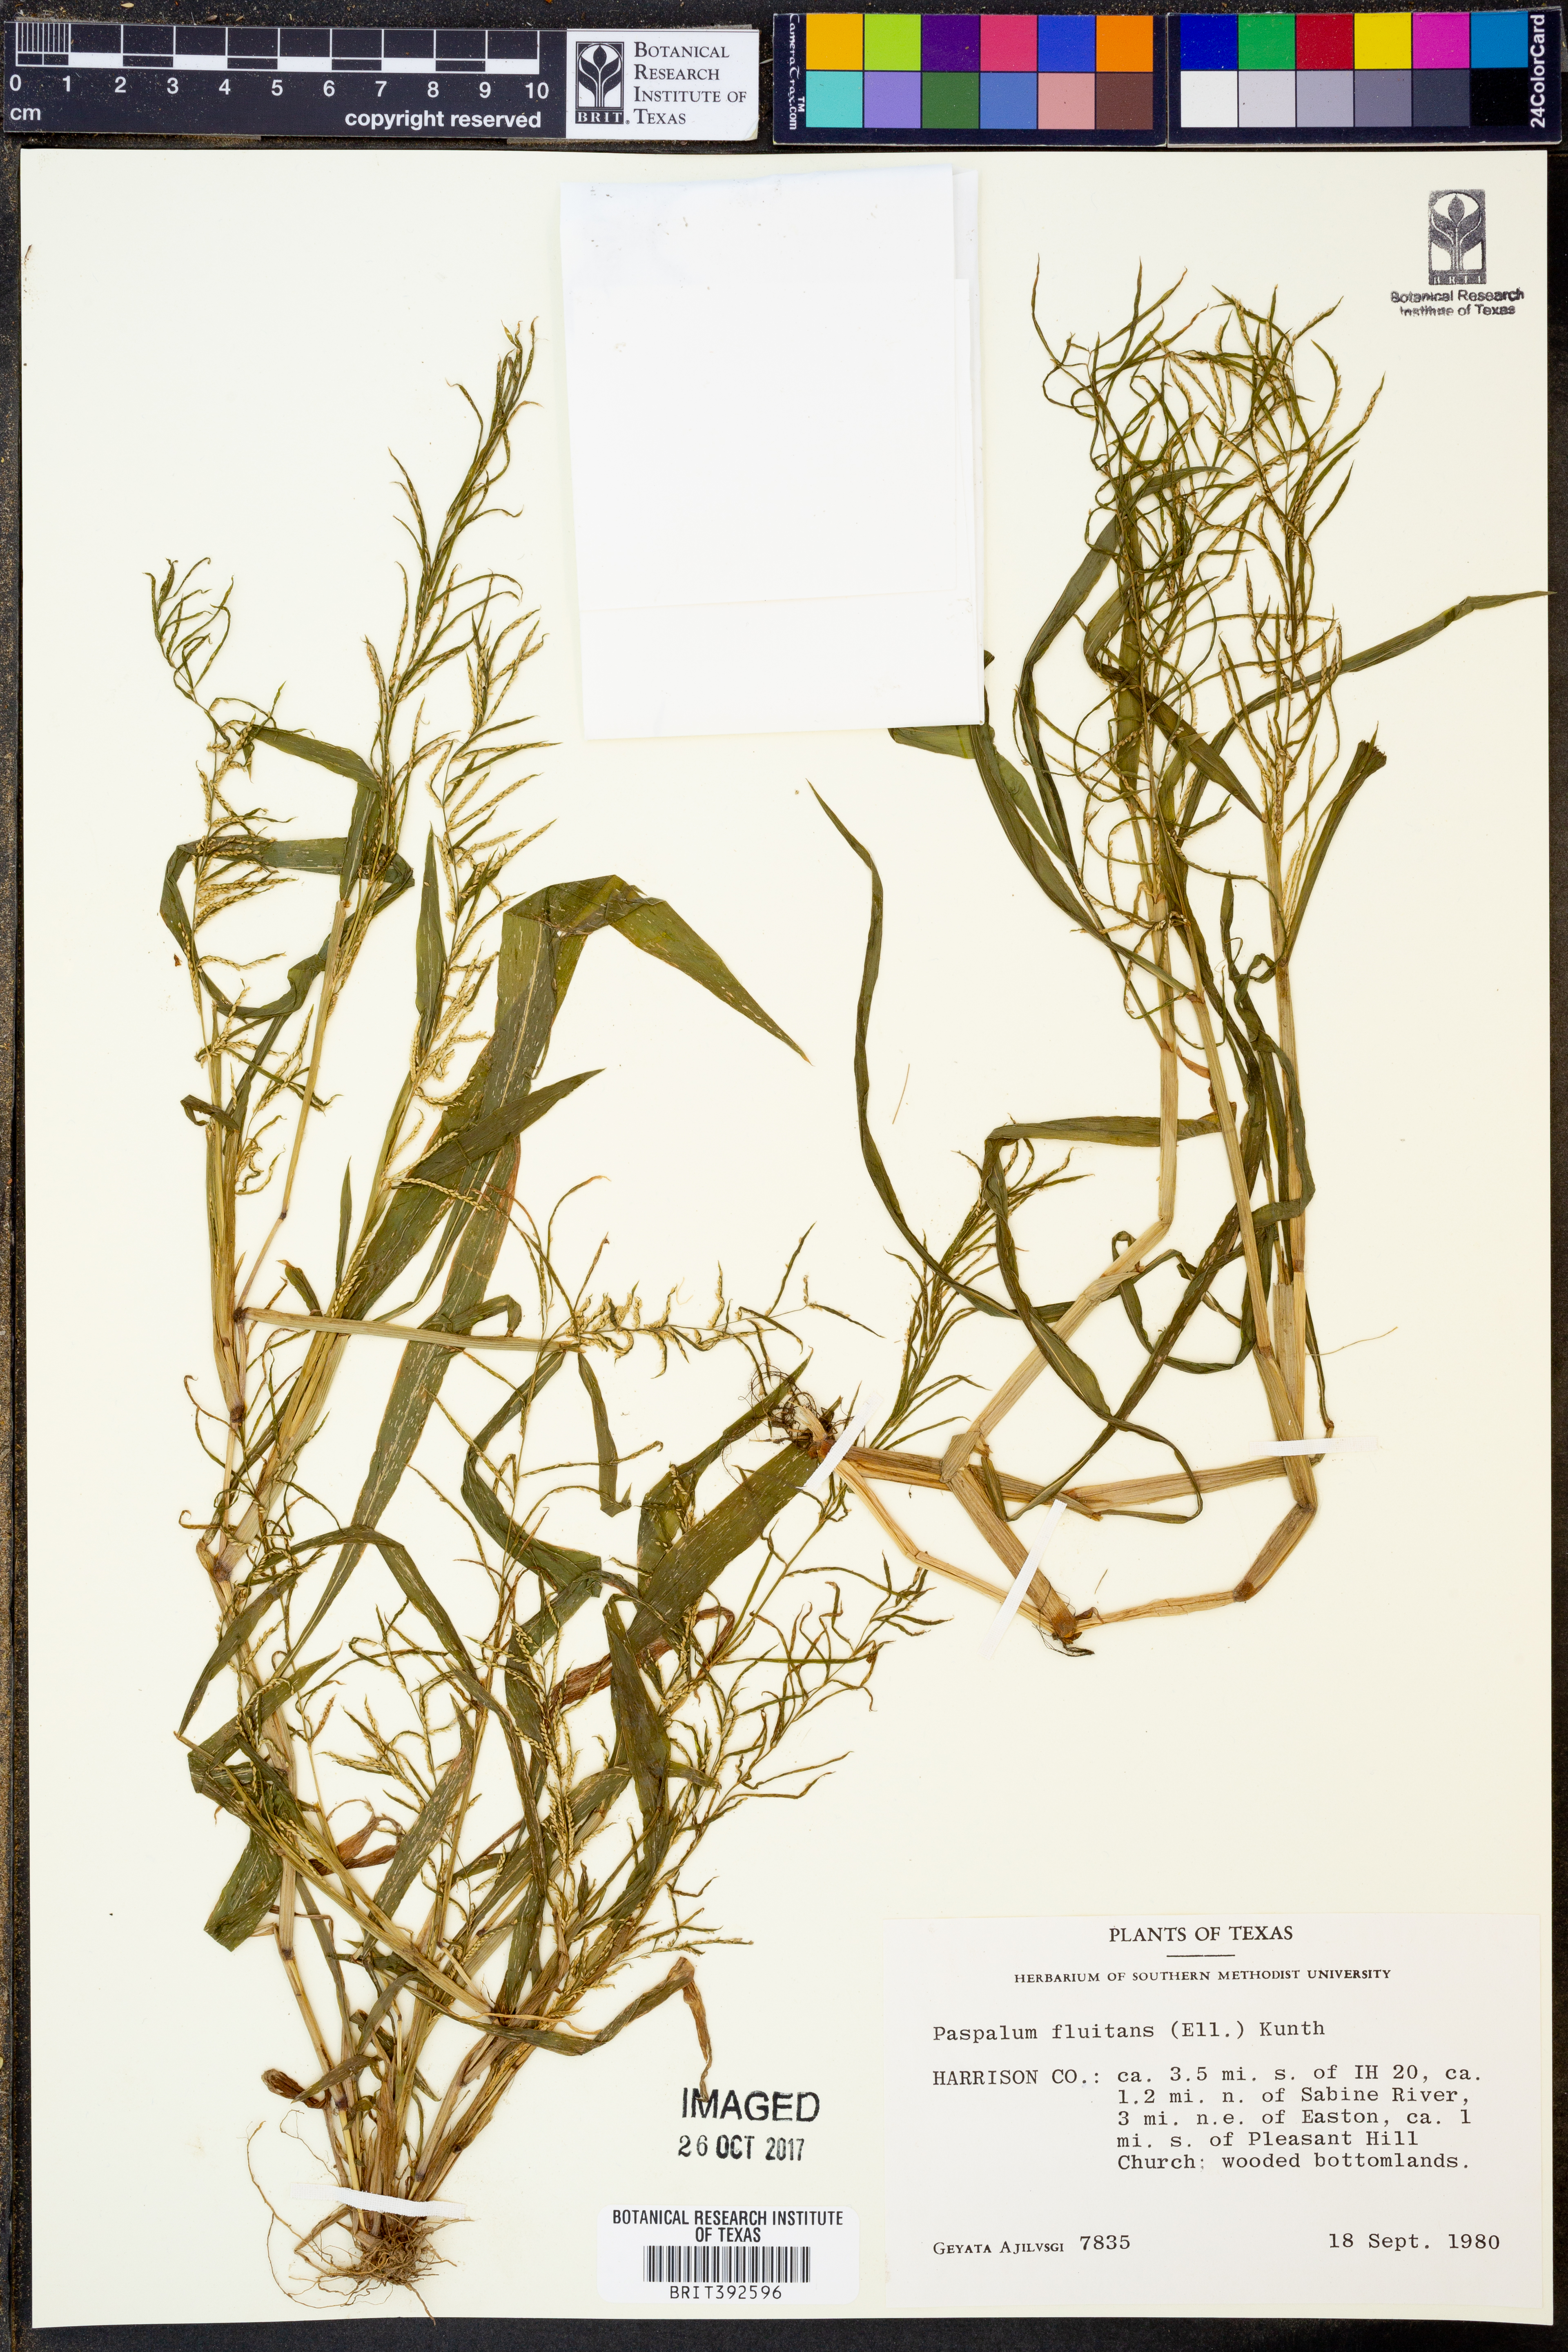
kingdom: Plantae
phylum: Tracheophyta
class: Liliopsida
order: Poales
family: Poaceae
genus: Paspalum
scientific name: Paspalum repens
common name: Water paspalum
